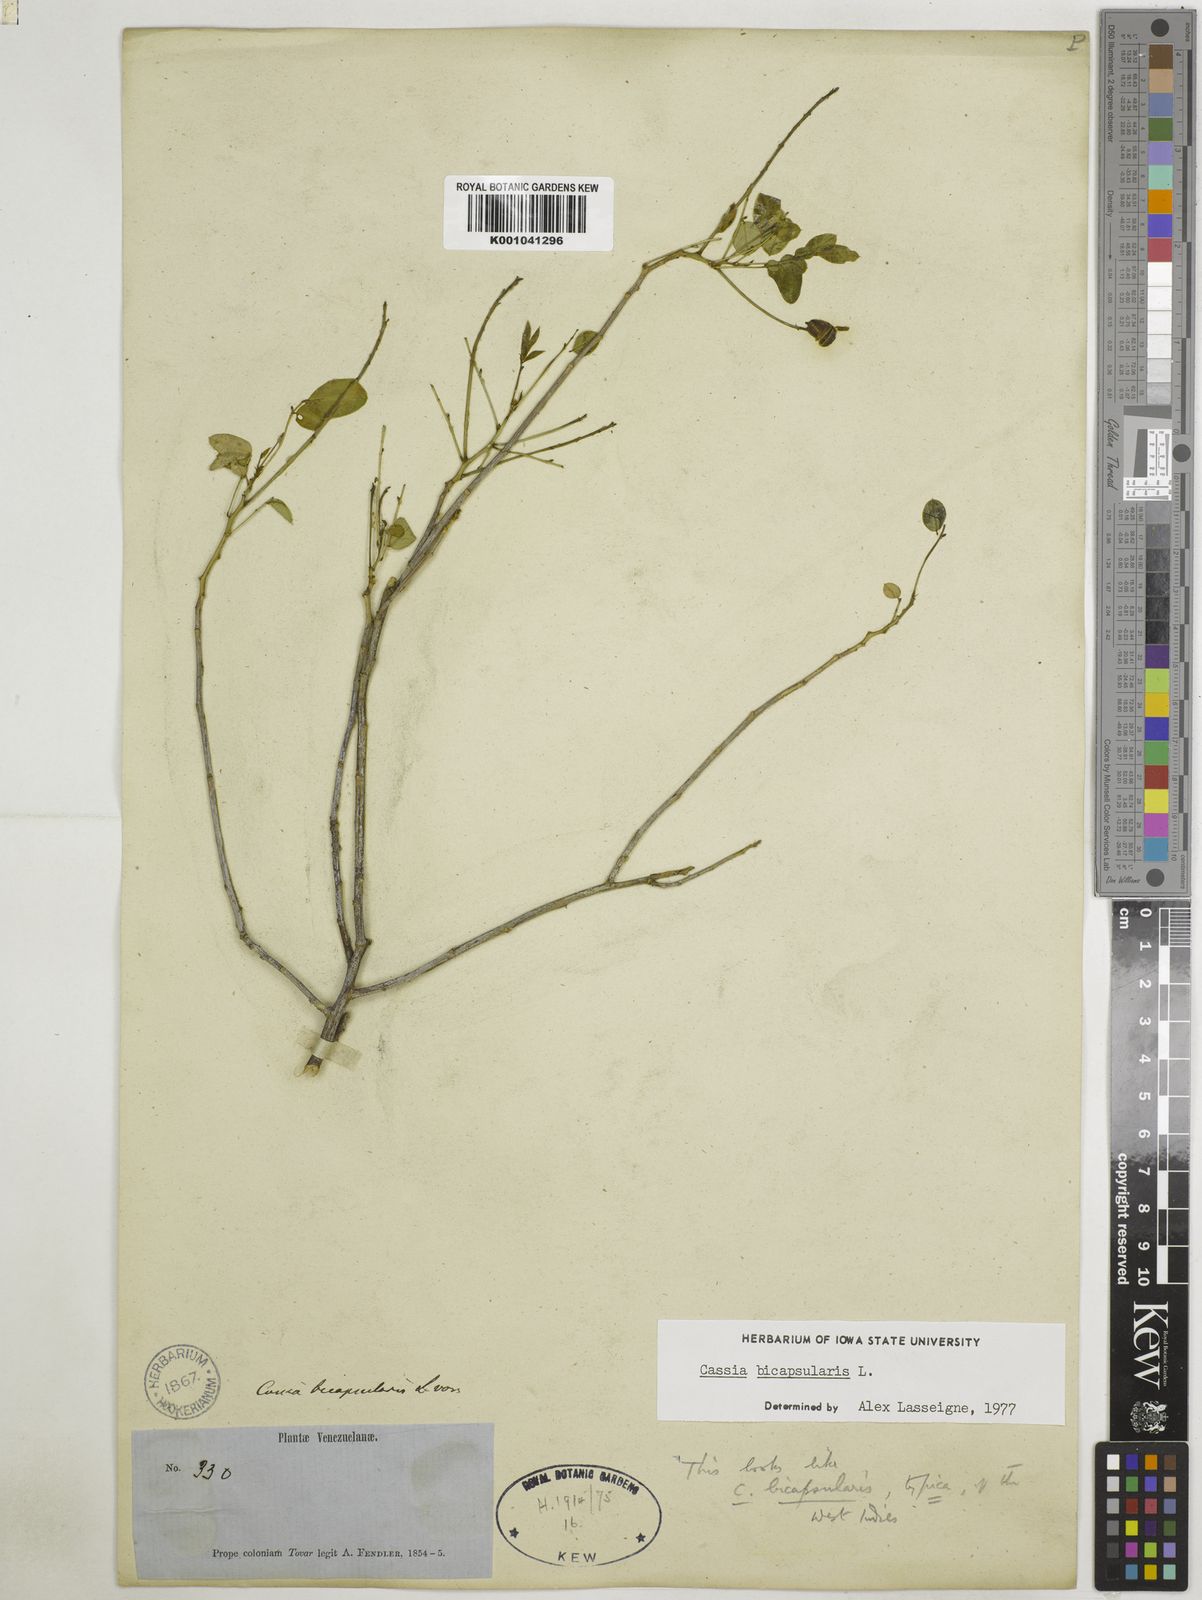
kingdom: Plantae
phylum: Tracheophyta
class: Magnoliopsida
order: Fabales
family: Fabaceae
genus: Senna
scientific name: Senna bicapsularis
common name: Christmasbush
